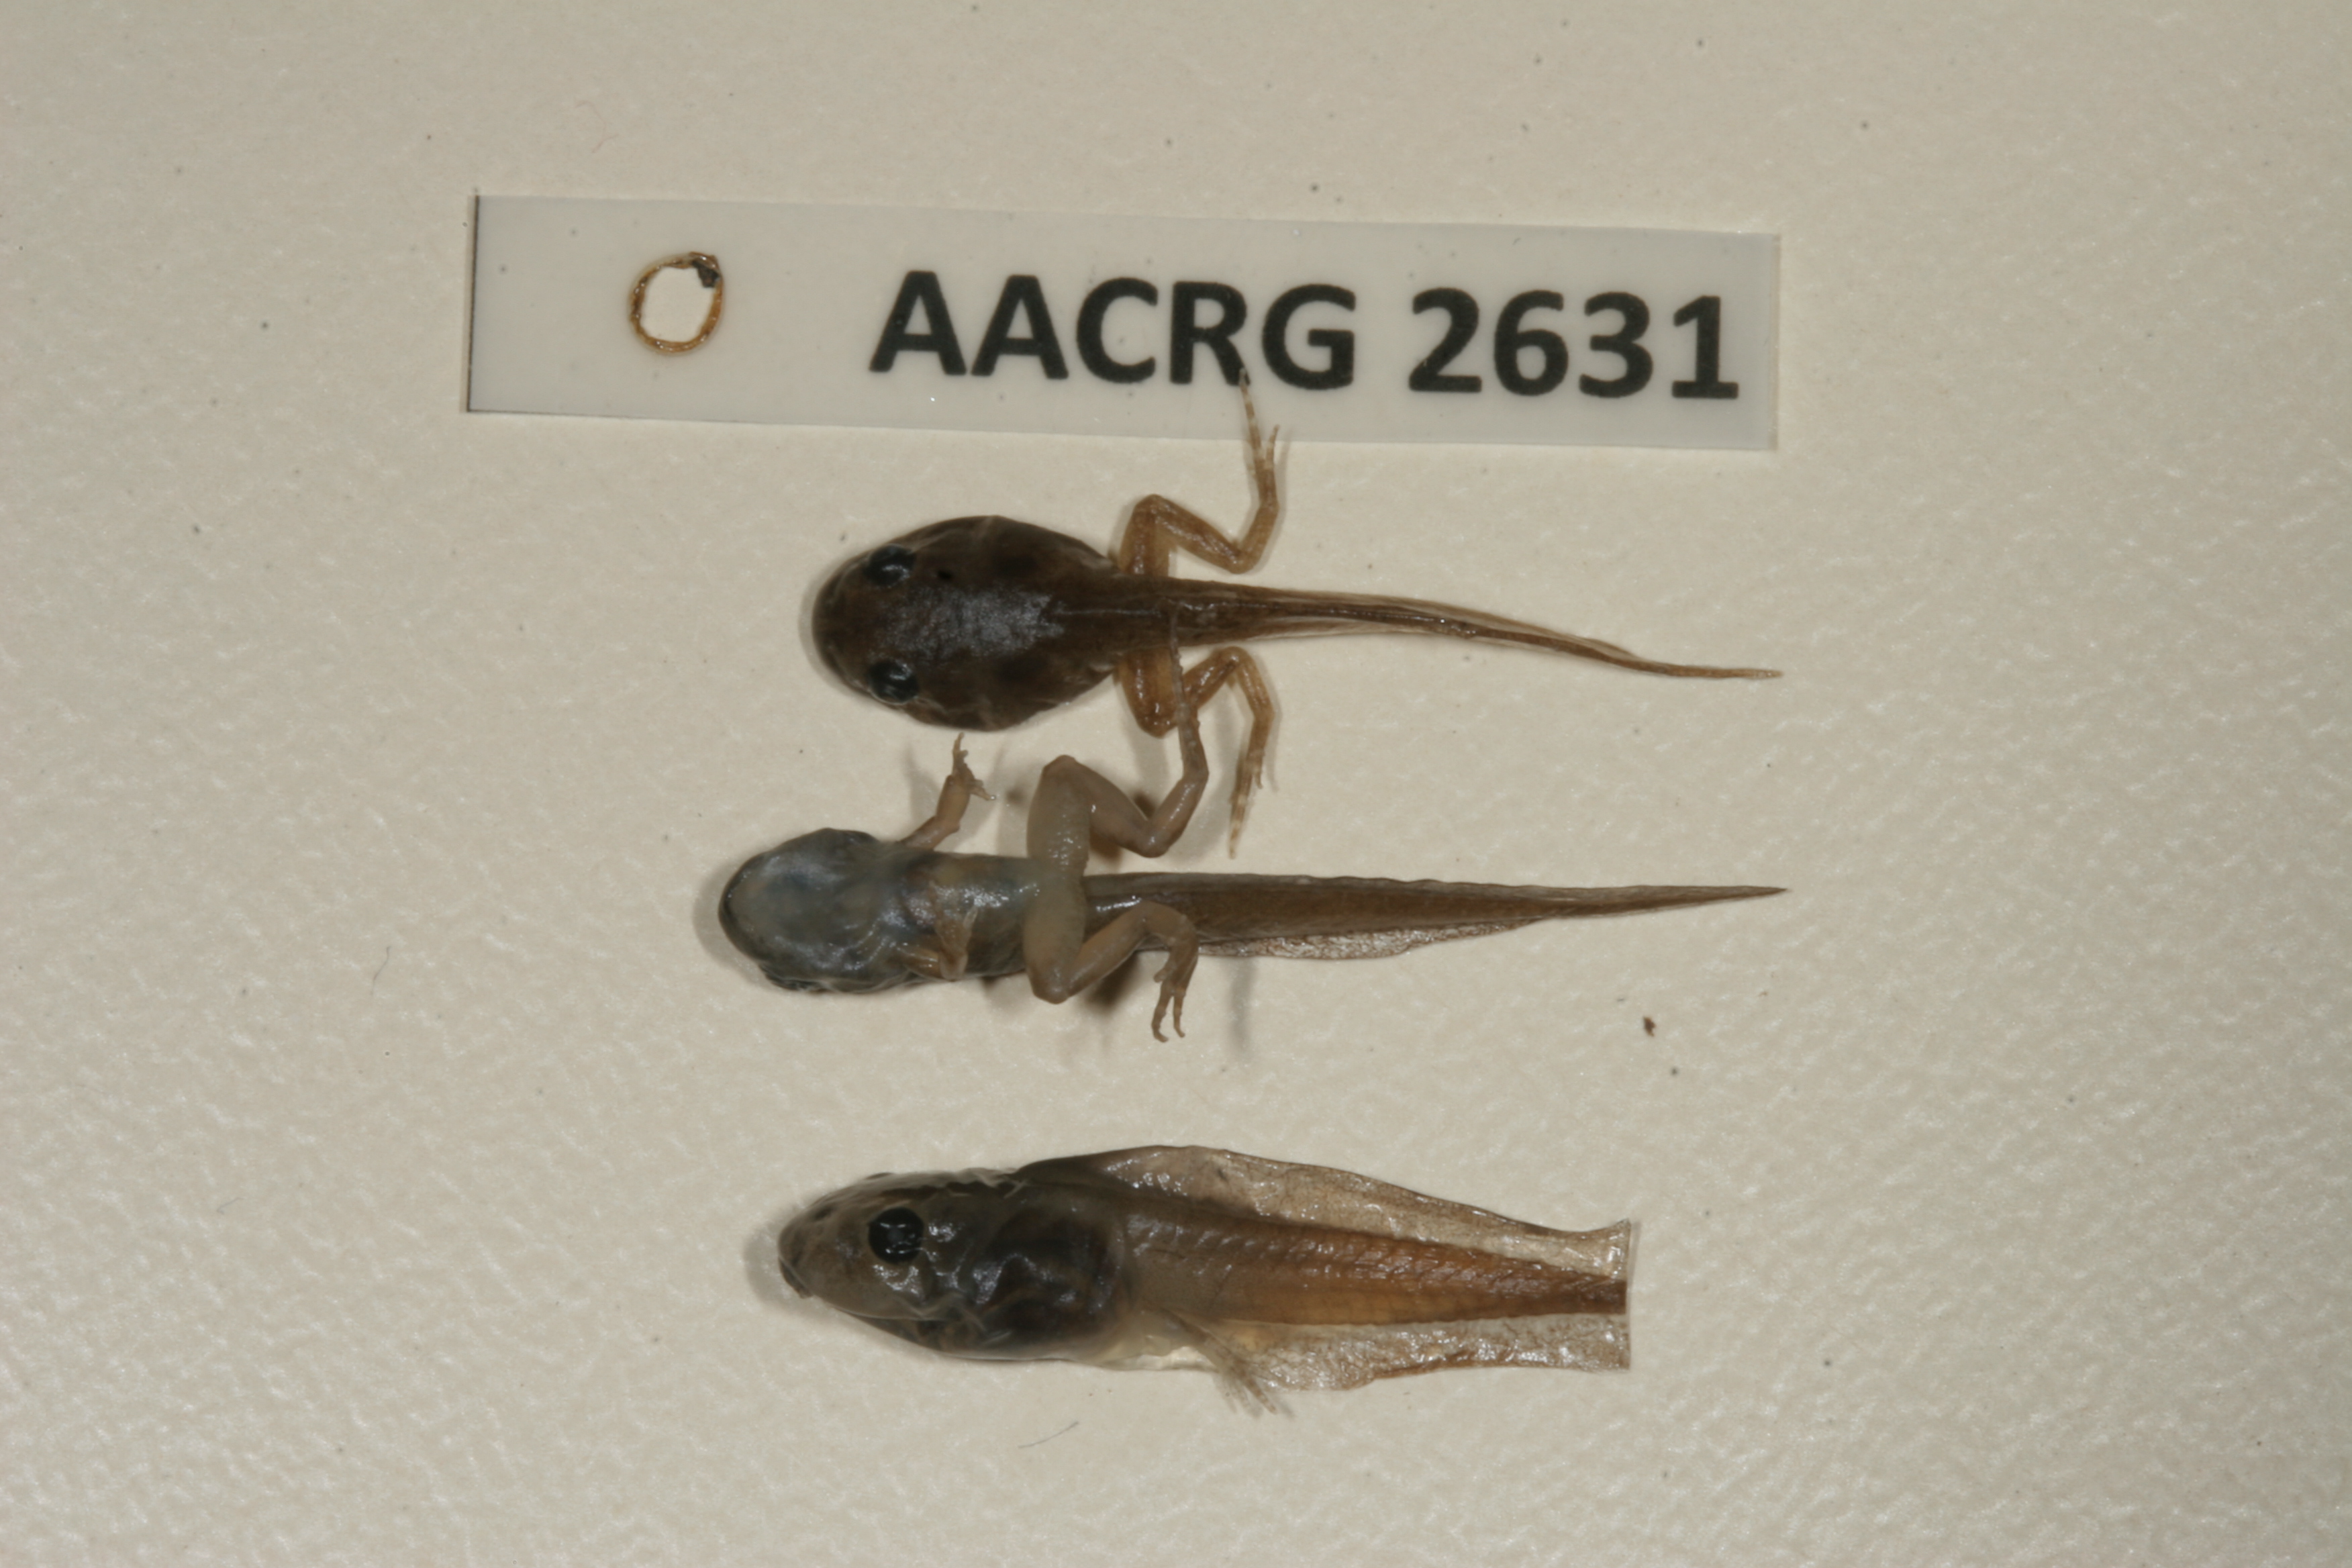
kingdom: Animalia
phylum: Chordata
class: Amphibia
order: Anura
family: Pyxicephalidae
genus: Cacosternum
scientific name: Cacosternum nanum
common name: Bronze dainty frog
